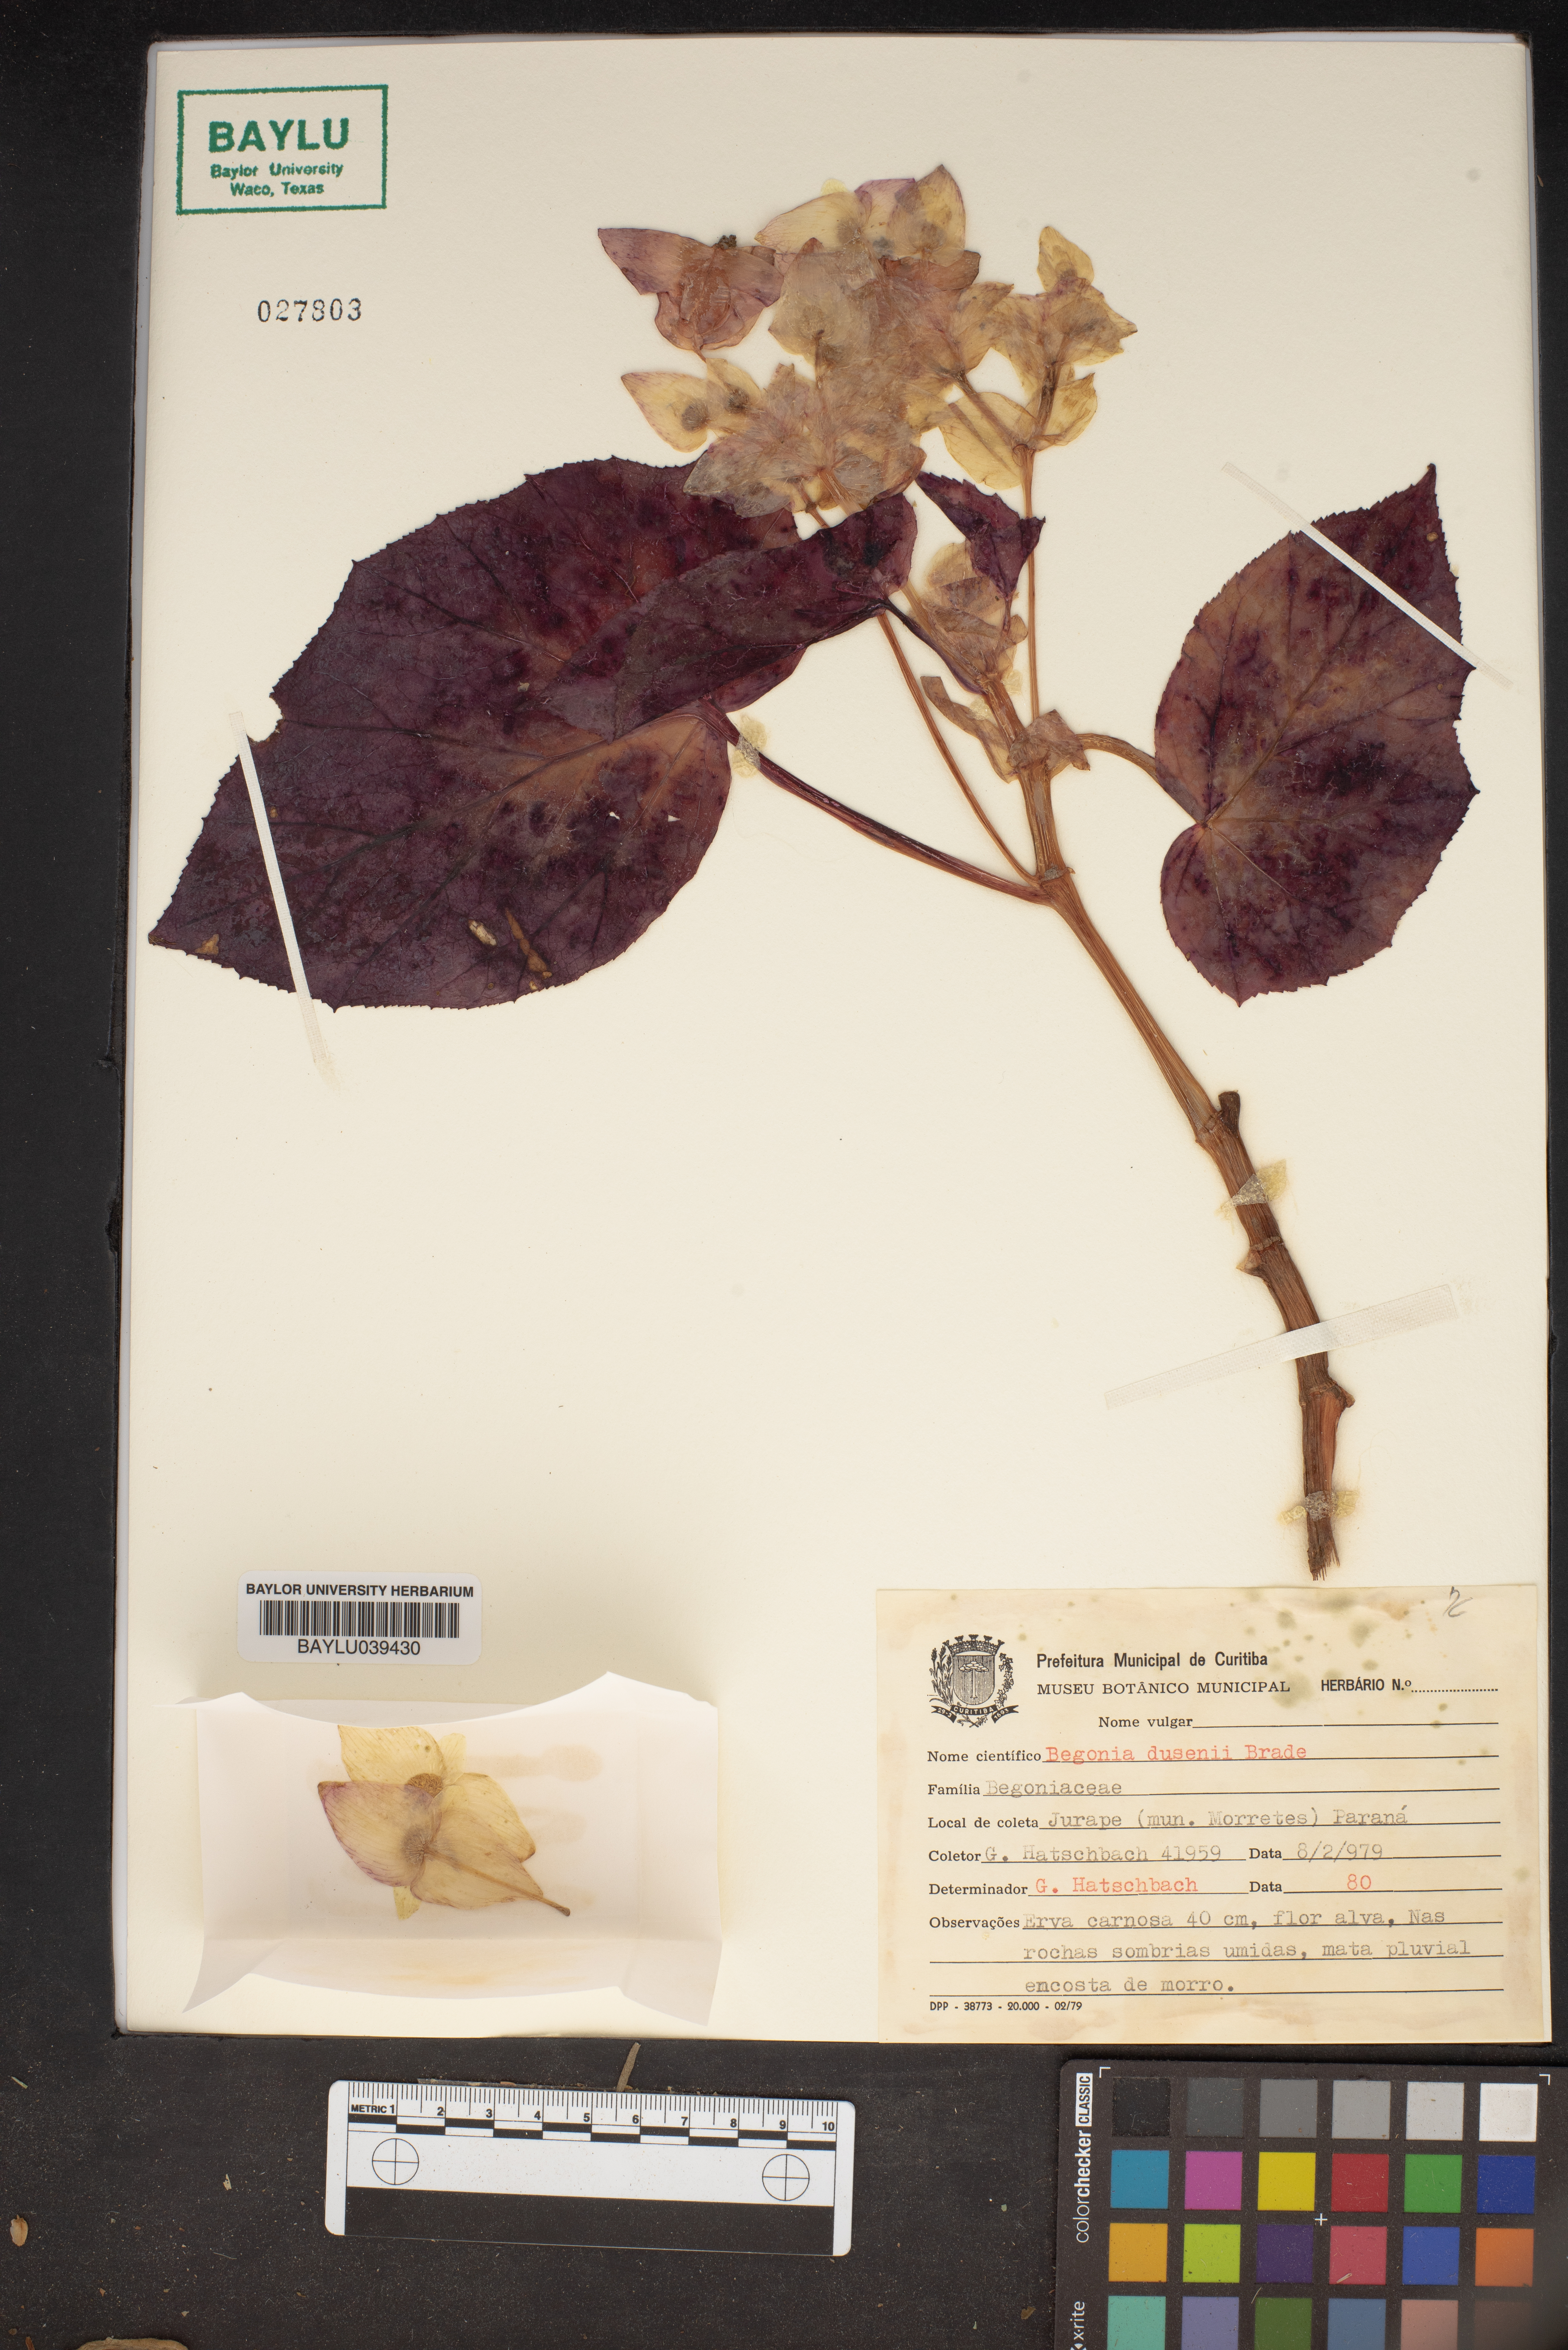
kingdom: Plantae
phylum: Tracheophyta
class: Magnoliopsida
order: Cucurbitales
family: Begoniaceae
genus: Begonia
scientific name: Begonia barkleyana
